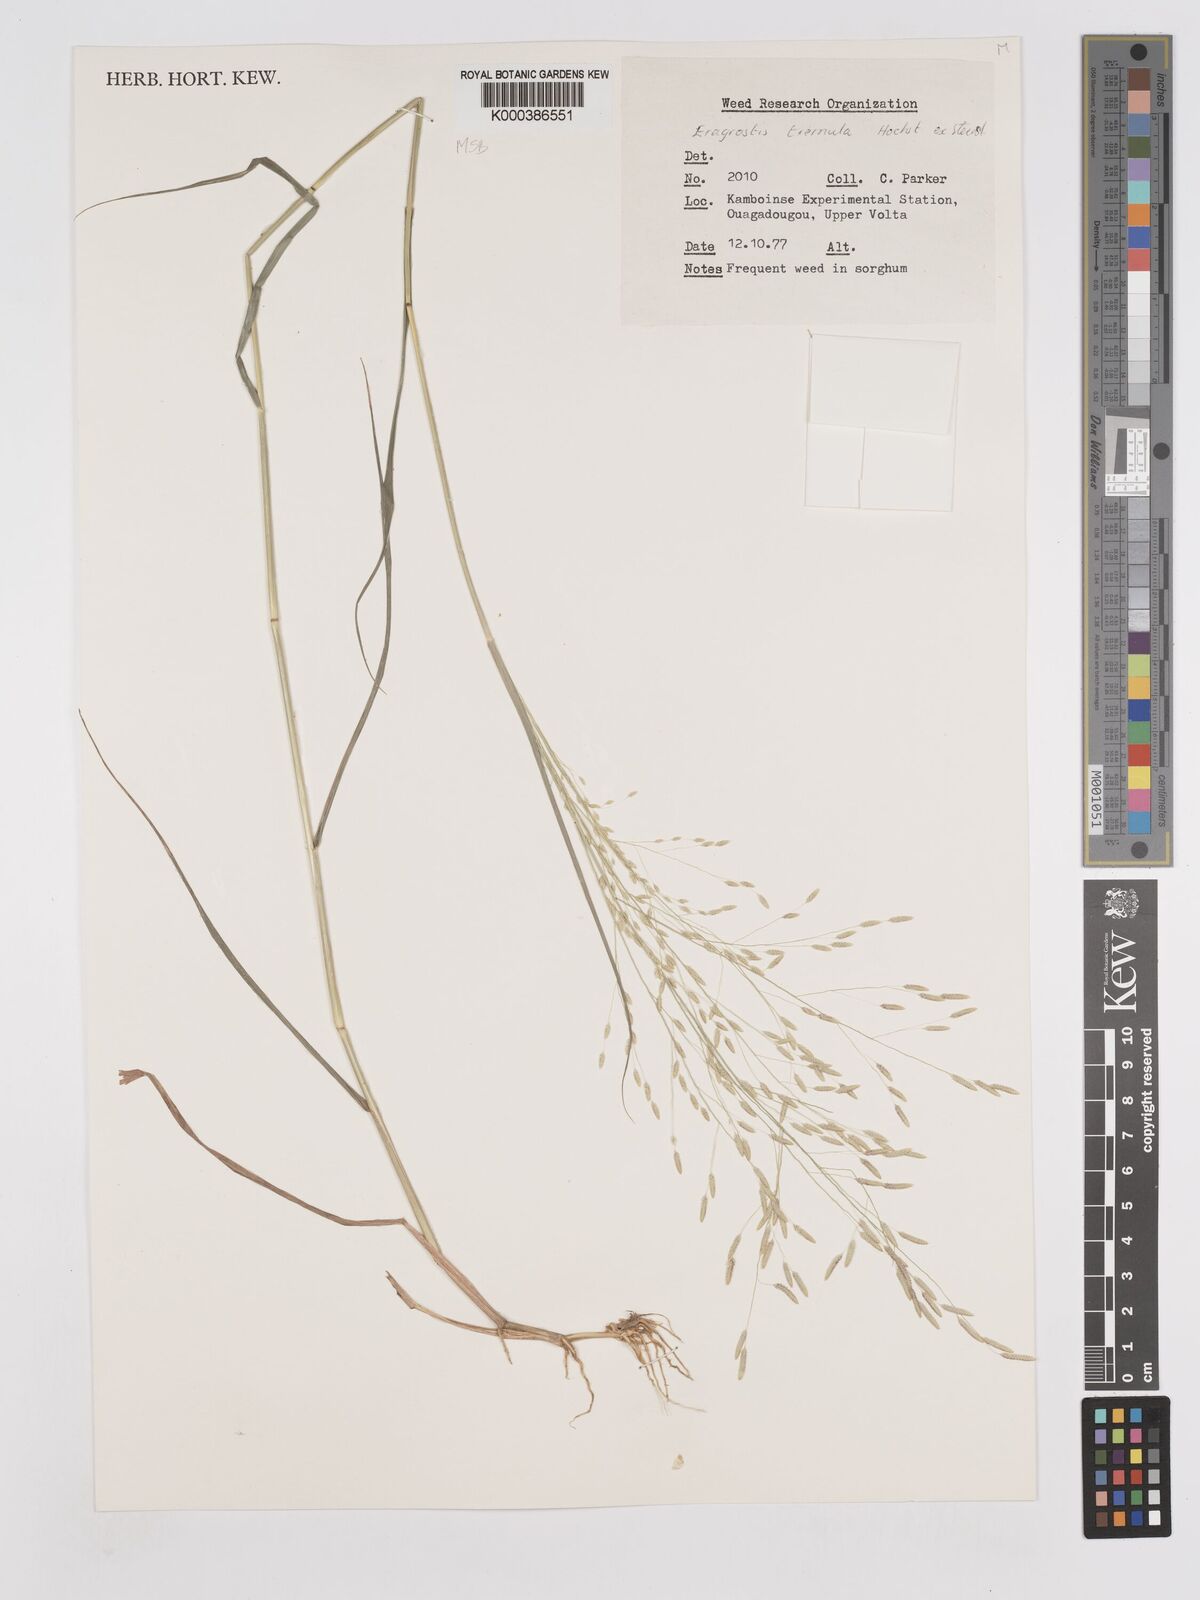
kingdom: Plantae
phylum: Tracheophyta
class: Liliopsida
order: Poales
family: Poaceae
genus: Eragrostis
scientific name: Eragrostis tremula
